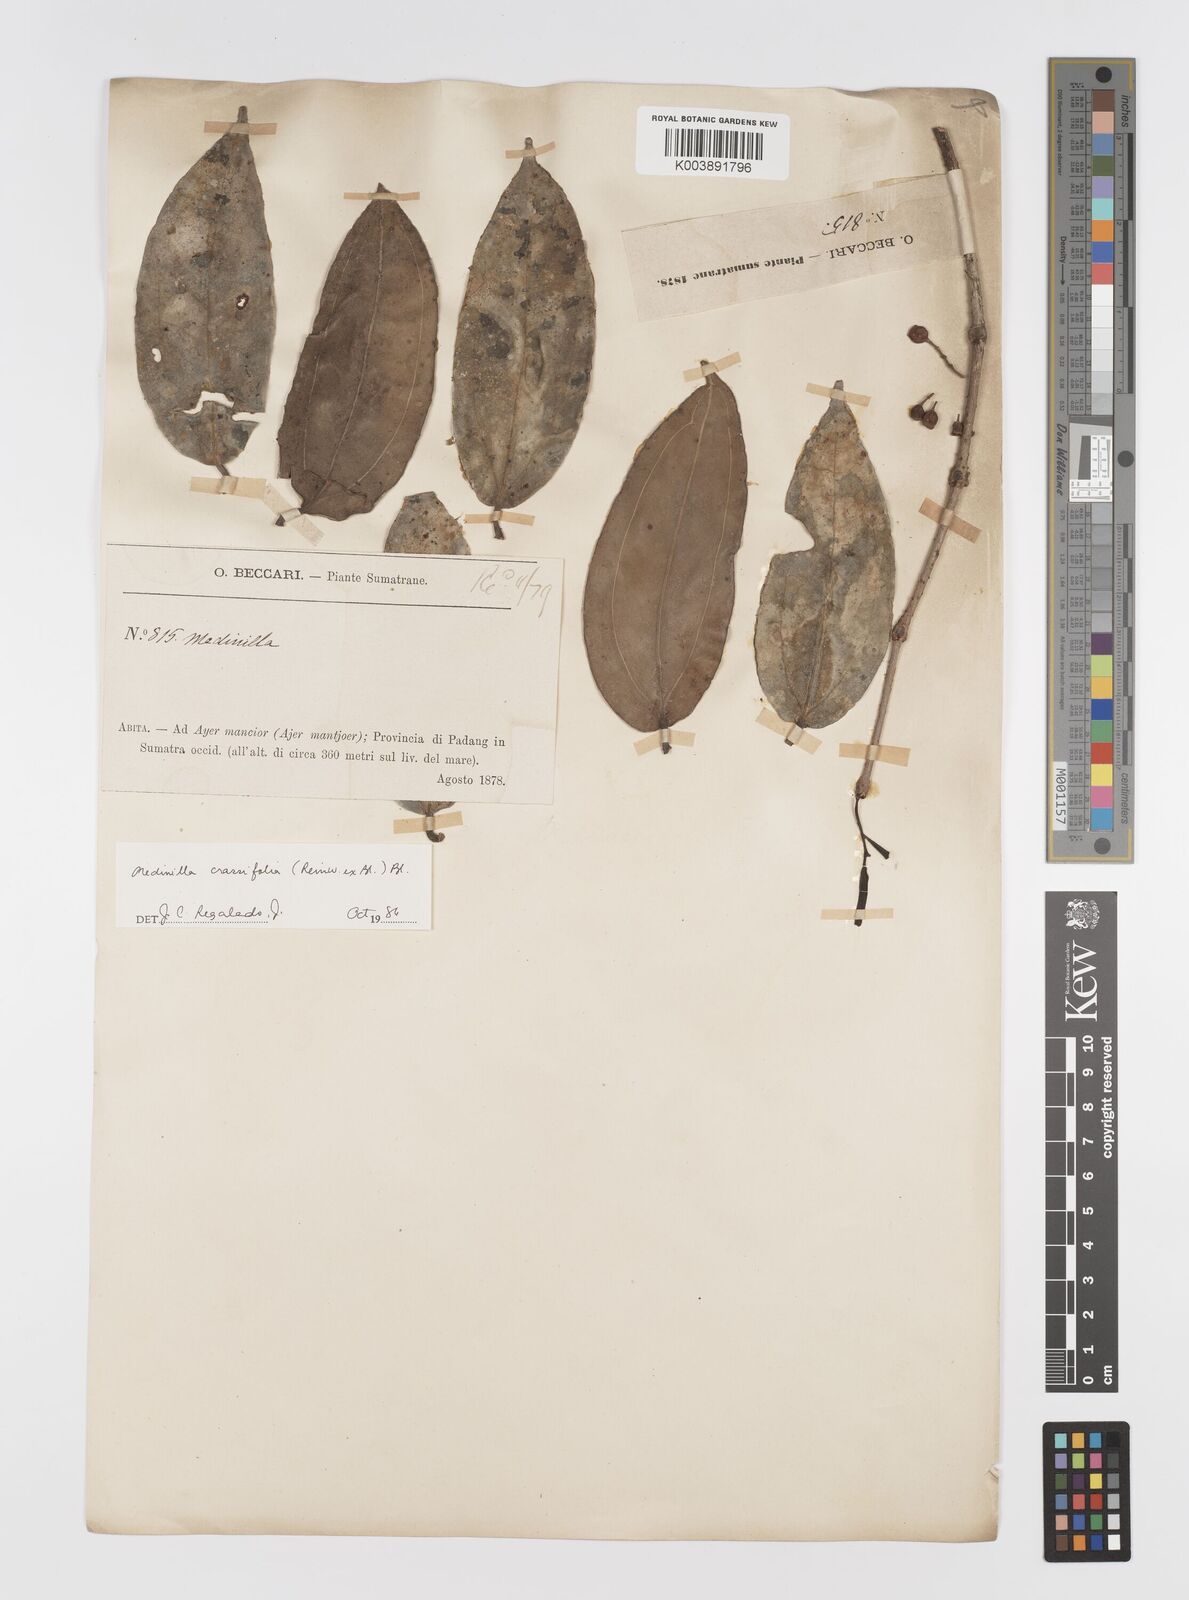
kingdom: Plantae
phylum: Tracheophyta
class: Magnoliopsida
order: Myrtales
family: Melastomataceae
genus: Medinilla
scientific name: Medinilla crassifolia
